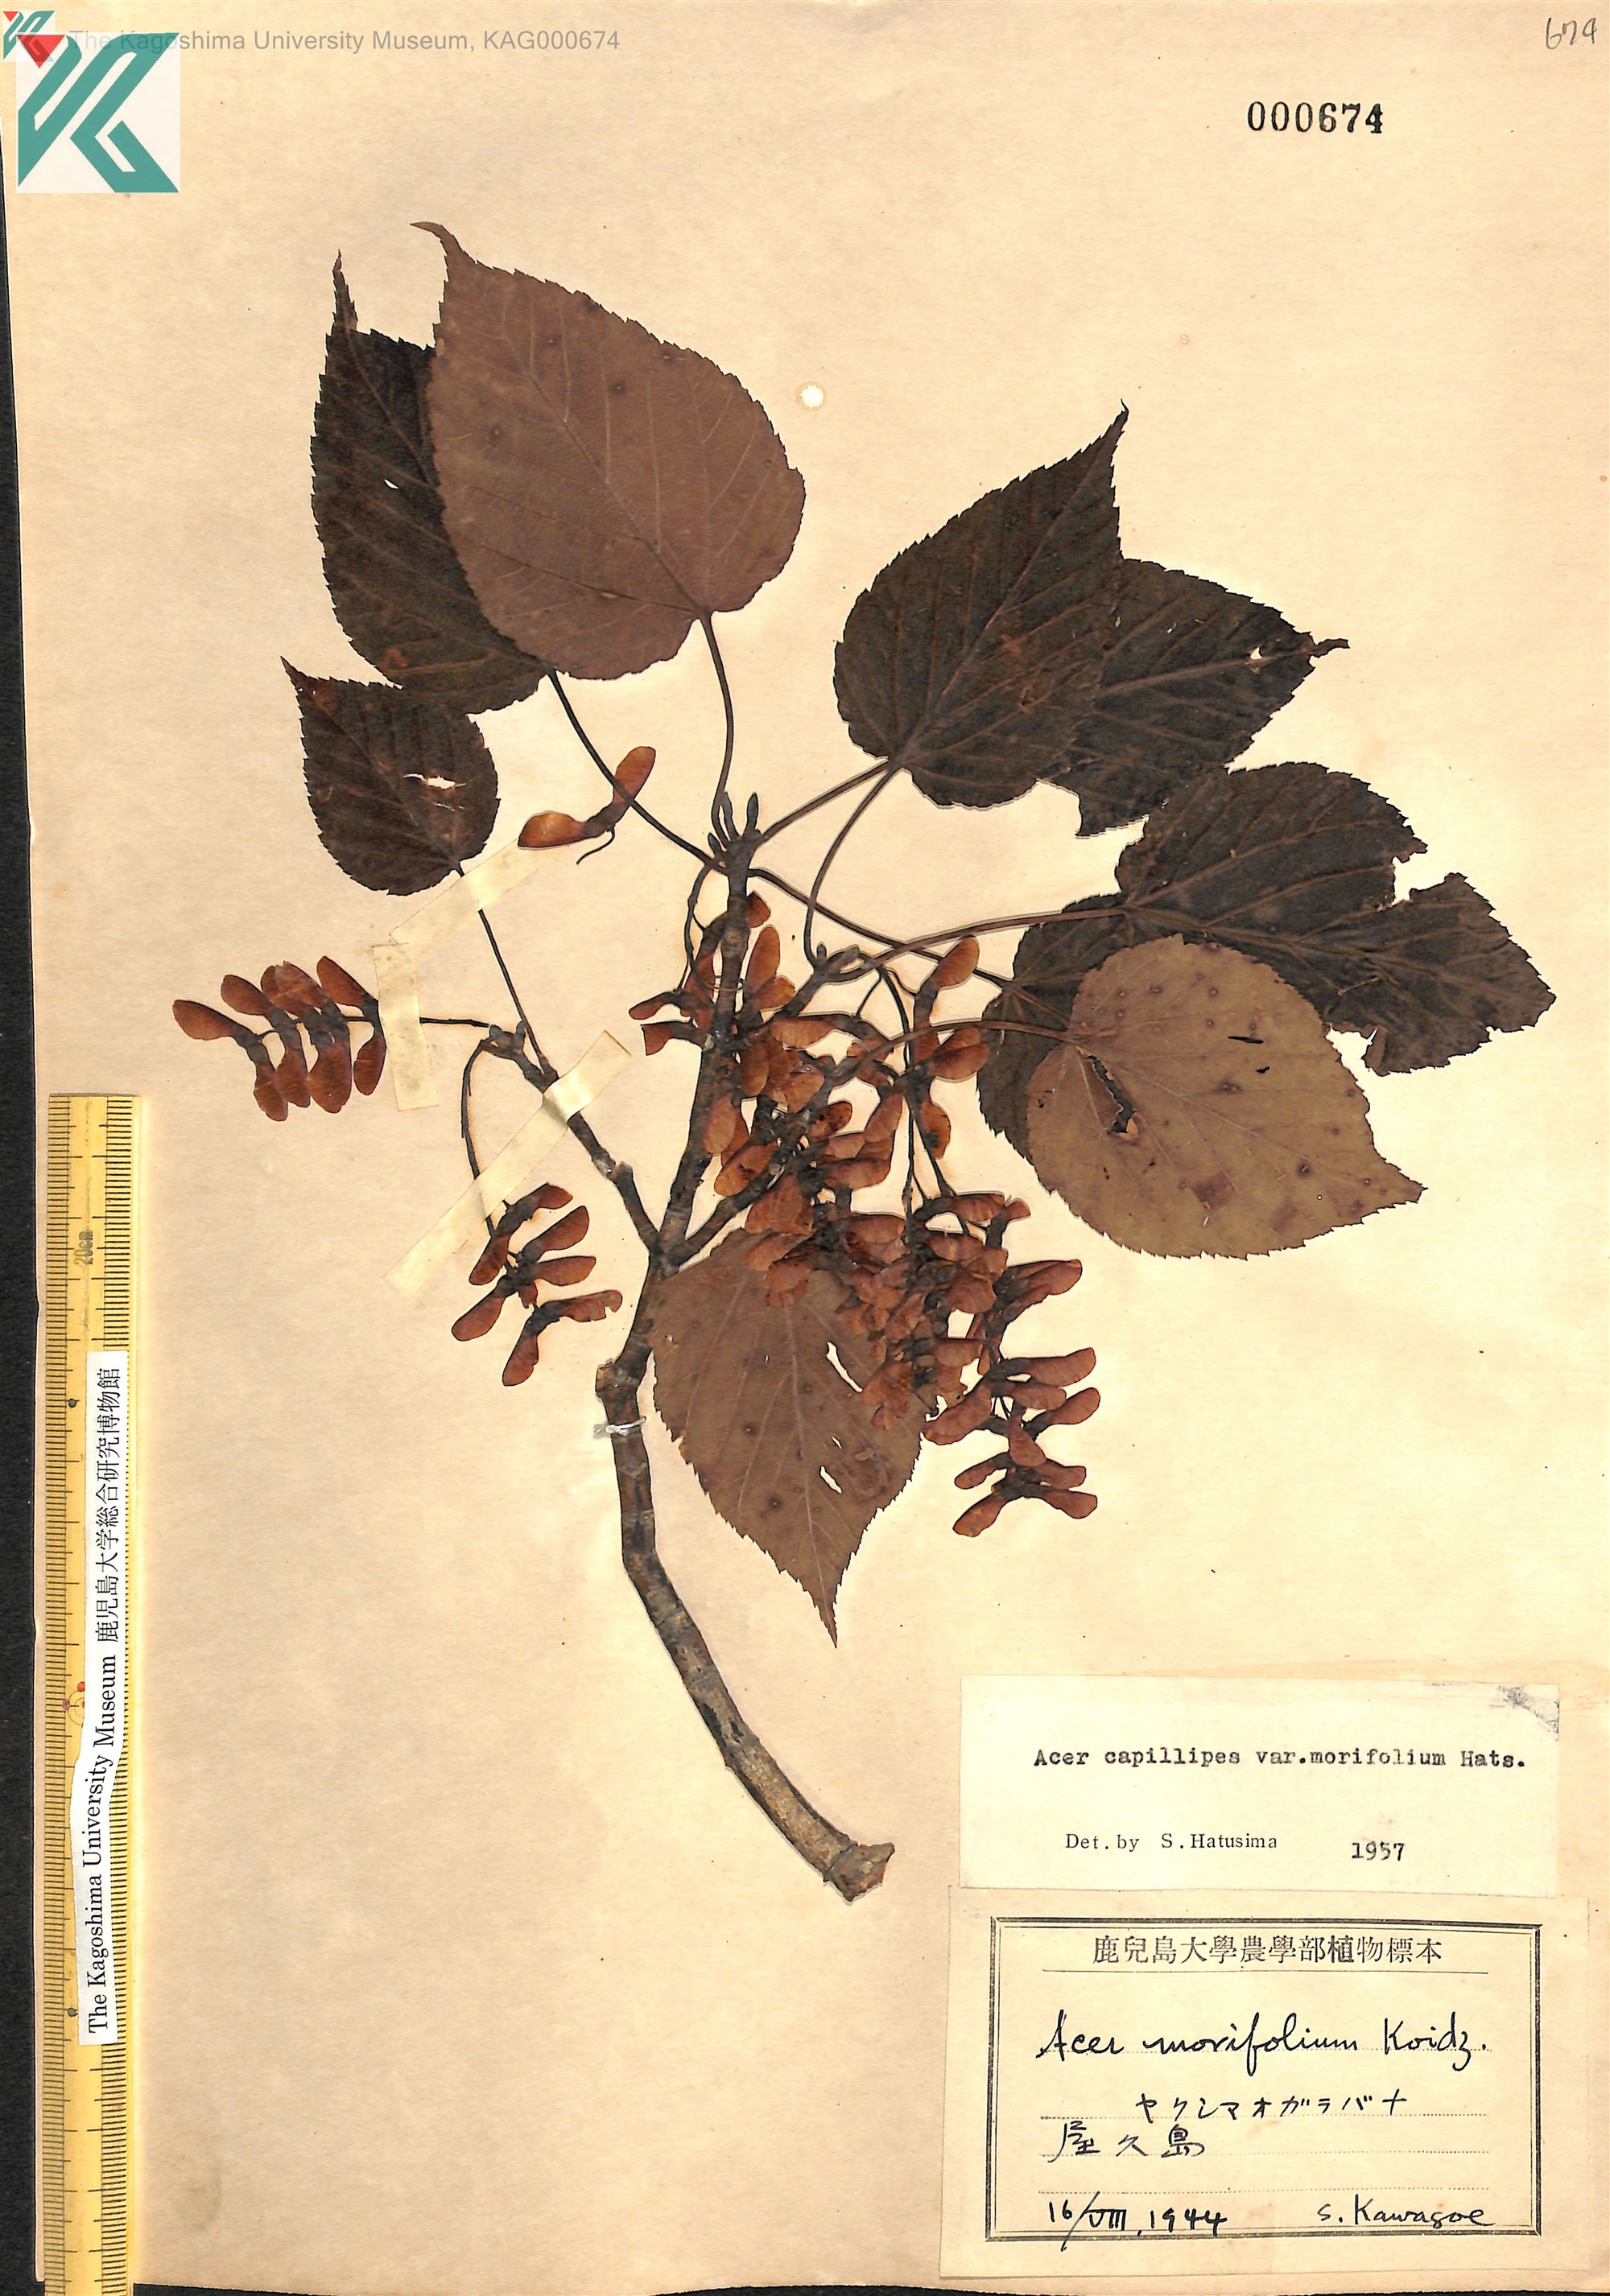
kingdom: Plantae
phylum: Tracheophyta
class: Magnoliopsida
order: Sapindales
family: Sapindaceae
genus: Acer
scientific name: Acer morifolium
